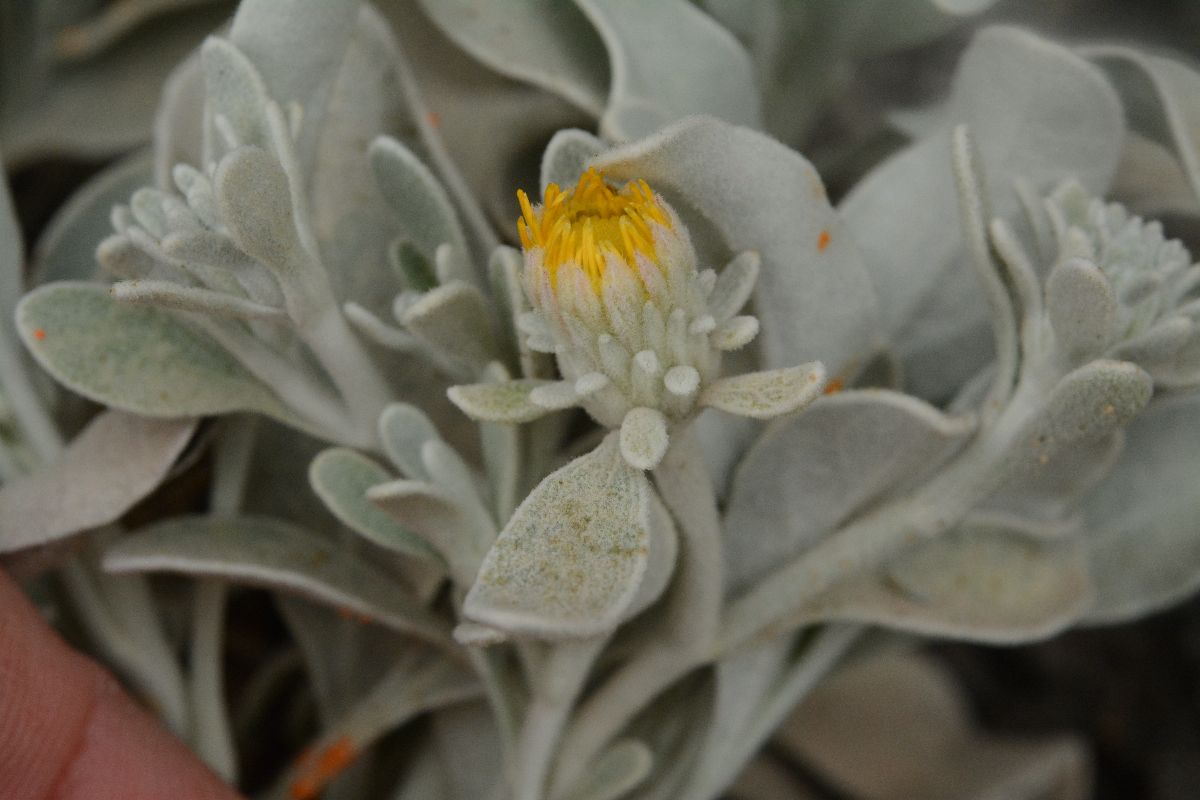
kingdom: Plantae
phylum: Tracheophyta
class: Magnoliopsida
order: Asterales
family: Asteraceae
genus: Helichrysum
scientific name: Helichrysum doerfleri
